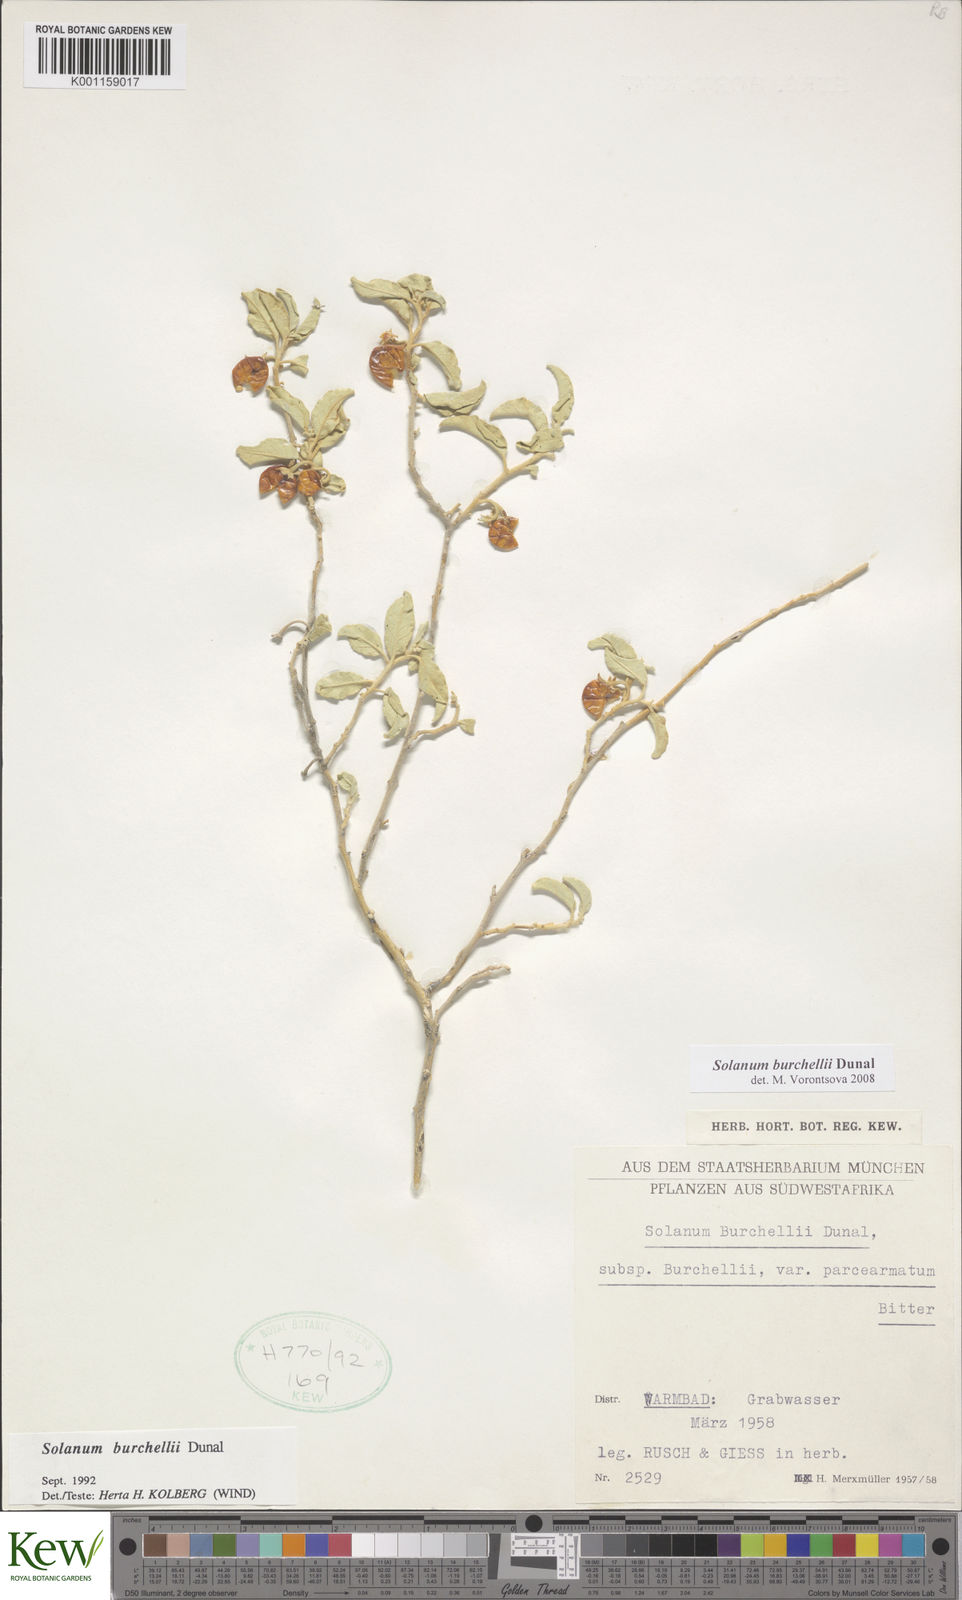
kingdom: Plantae
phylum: Tracheophyta
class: Magnoliopsida
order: Solanales
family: Solanaceae
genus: Solanum
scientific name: Solanum burchellii
